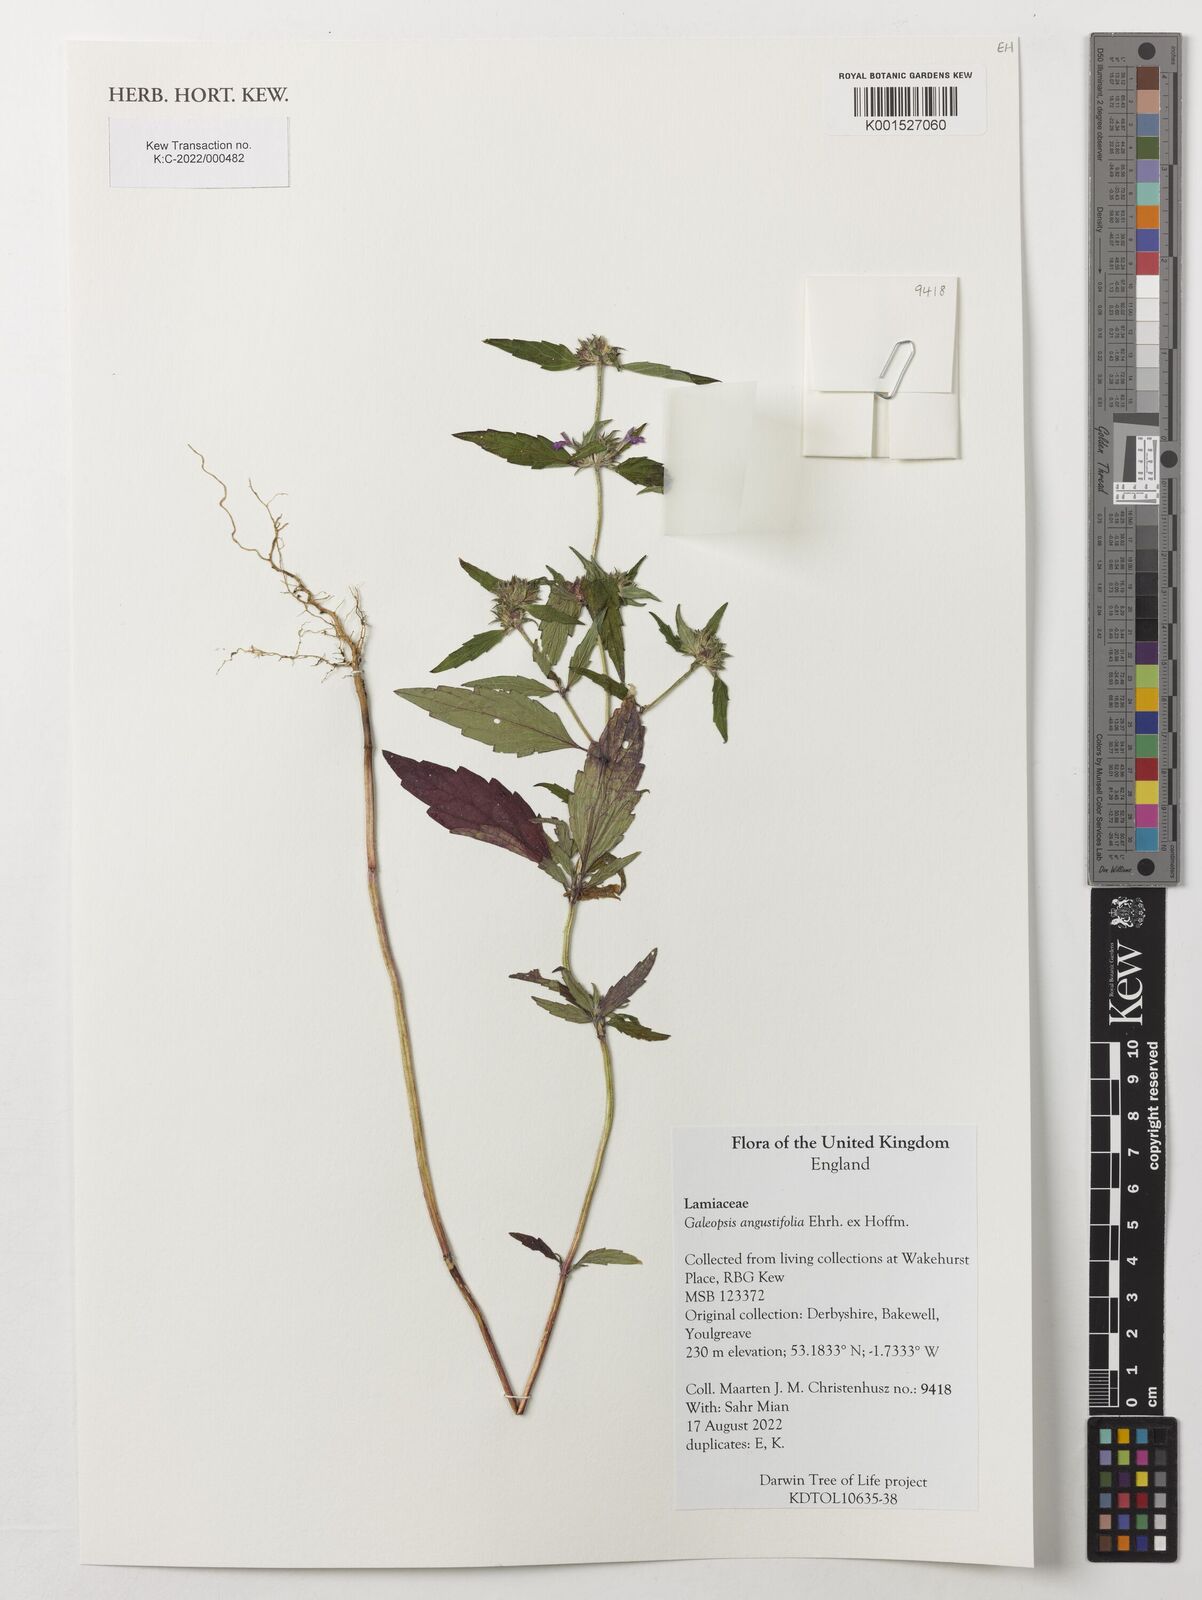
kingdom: Plantae
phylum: Tracheophyta
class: Magnoliopsida
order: Lamiales
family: Lamiaceae
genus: Galeopsis
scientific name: Galeopsis angustifolia
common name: Red hemp-nettle
